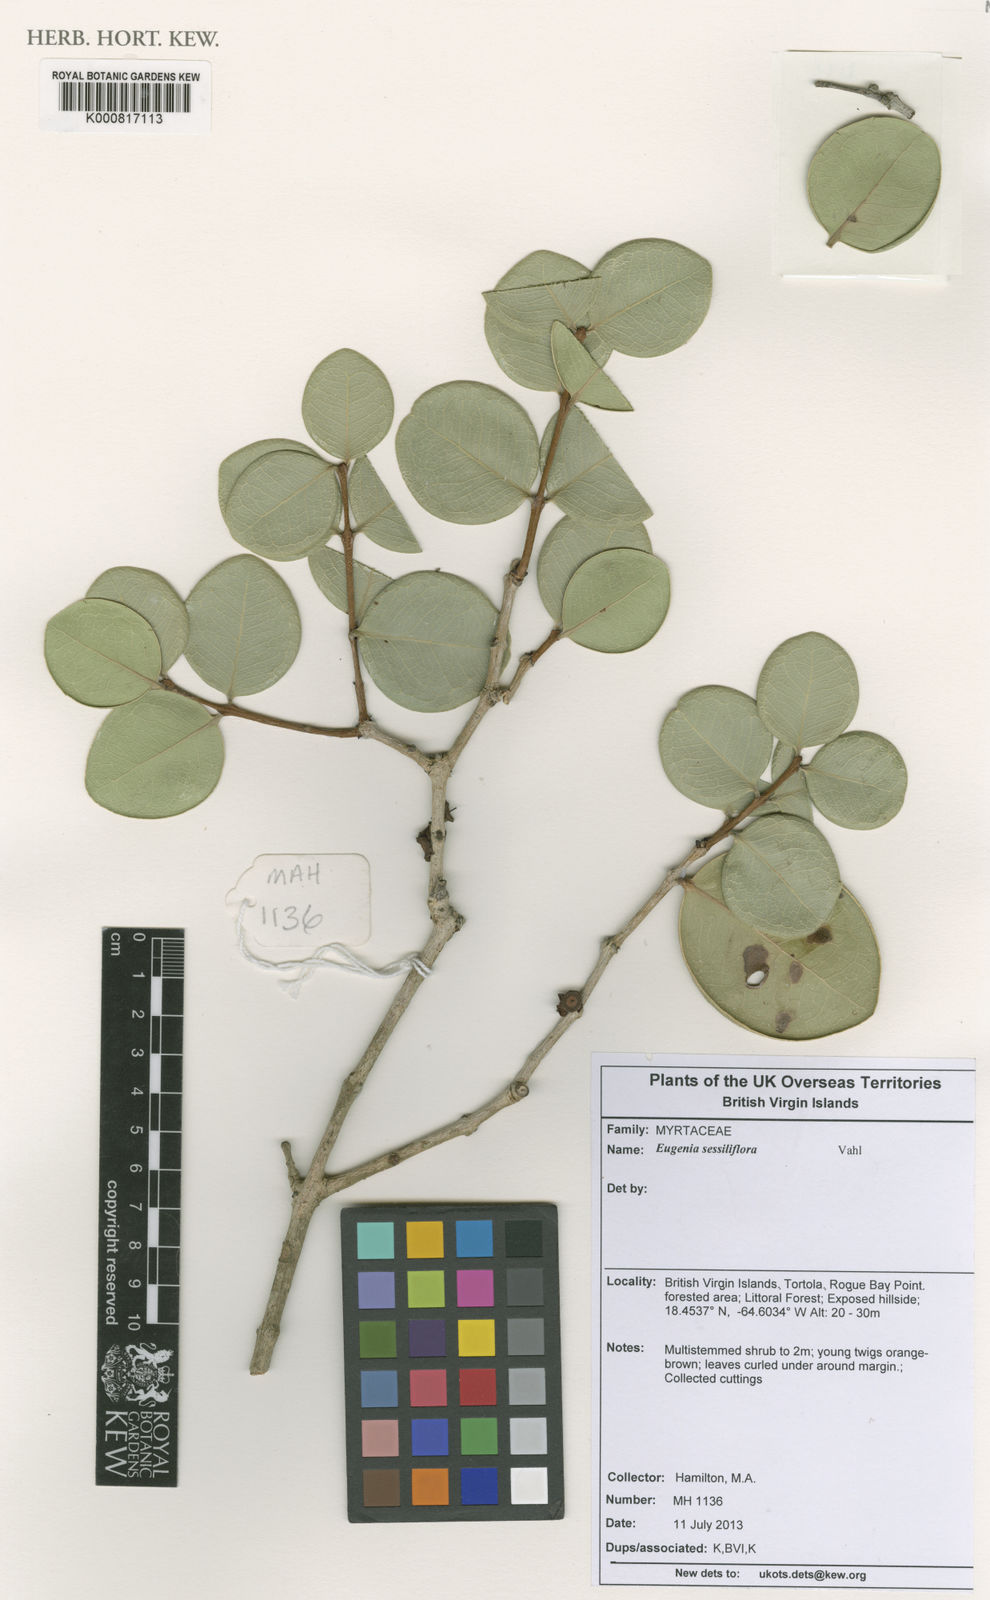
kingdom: Plantae
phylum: Tracheophyta
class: Magnoliopsida
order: Myrtales
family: Myrtaceae
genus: Eugenia
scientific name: Eugenia sessiliflora
